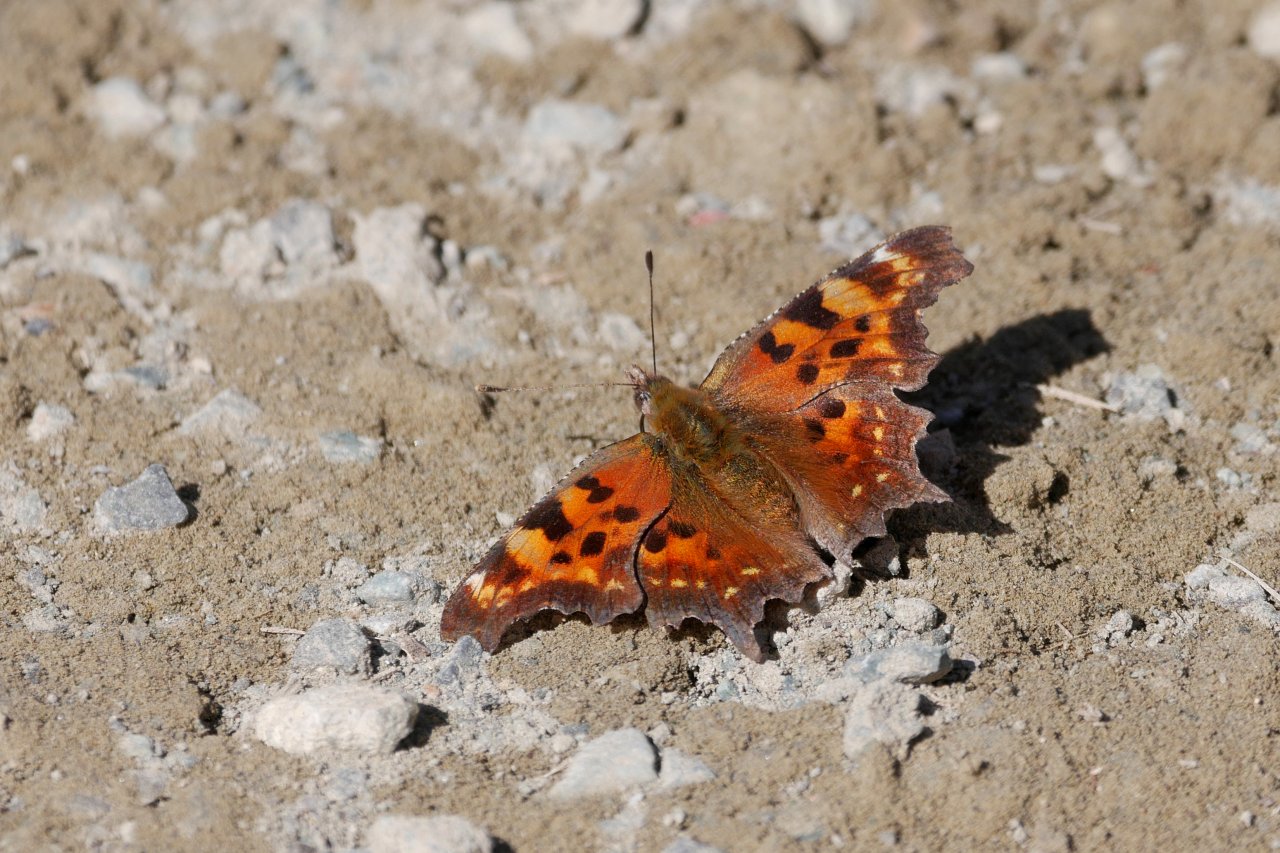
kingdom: Animalia
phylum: Arthropoda
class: Insecta
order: Lepidoptera
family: Nymphalidae
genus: Polygonia
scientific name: Polygonia faunus
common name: Green Comma
